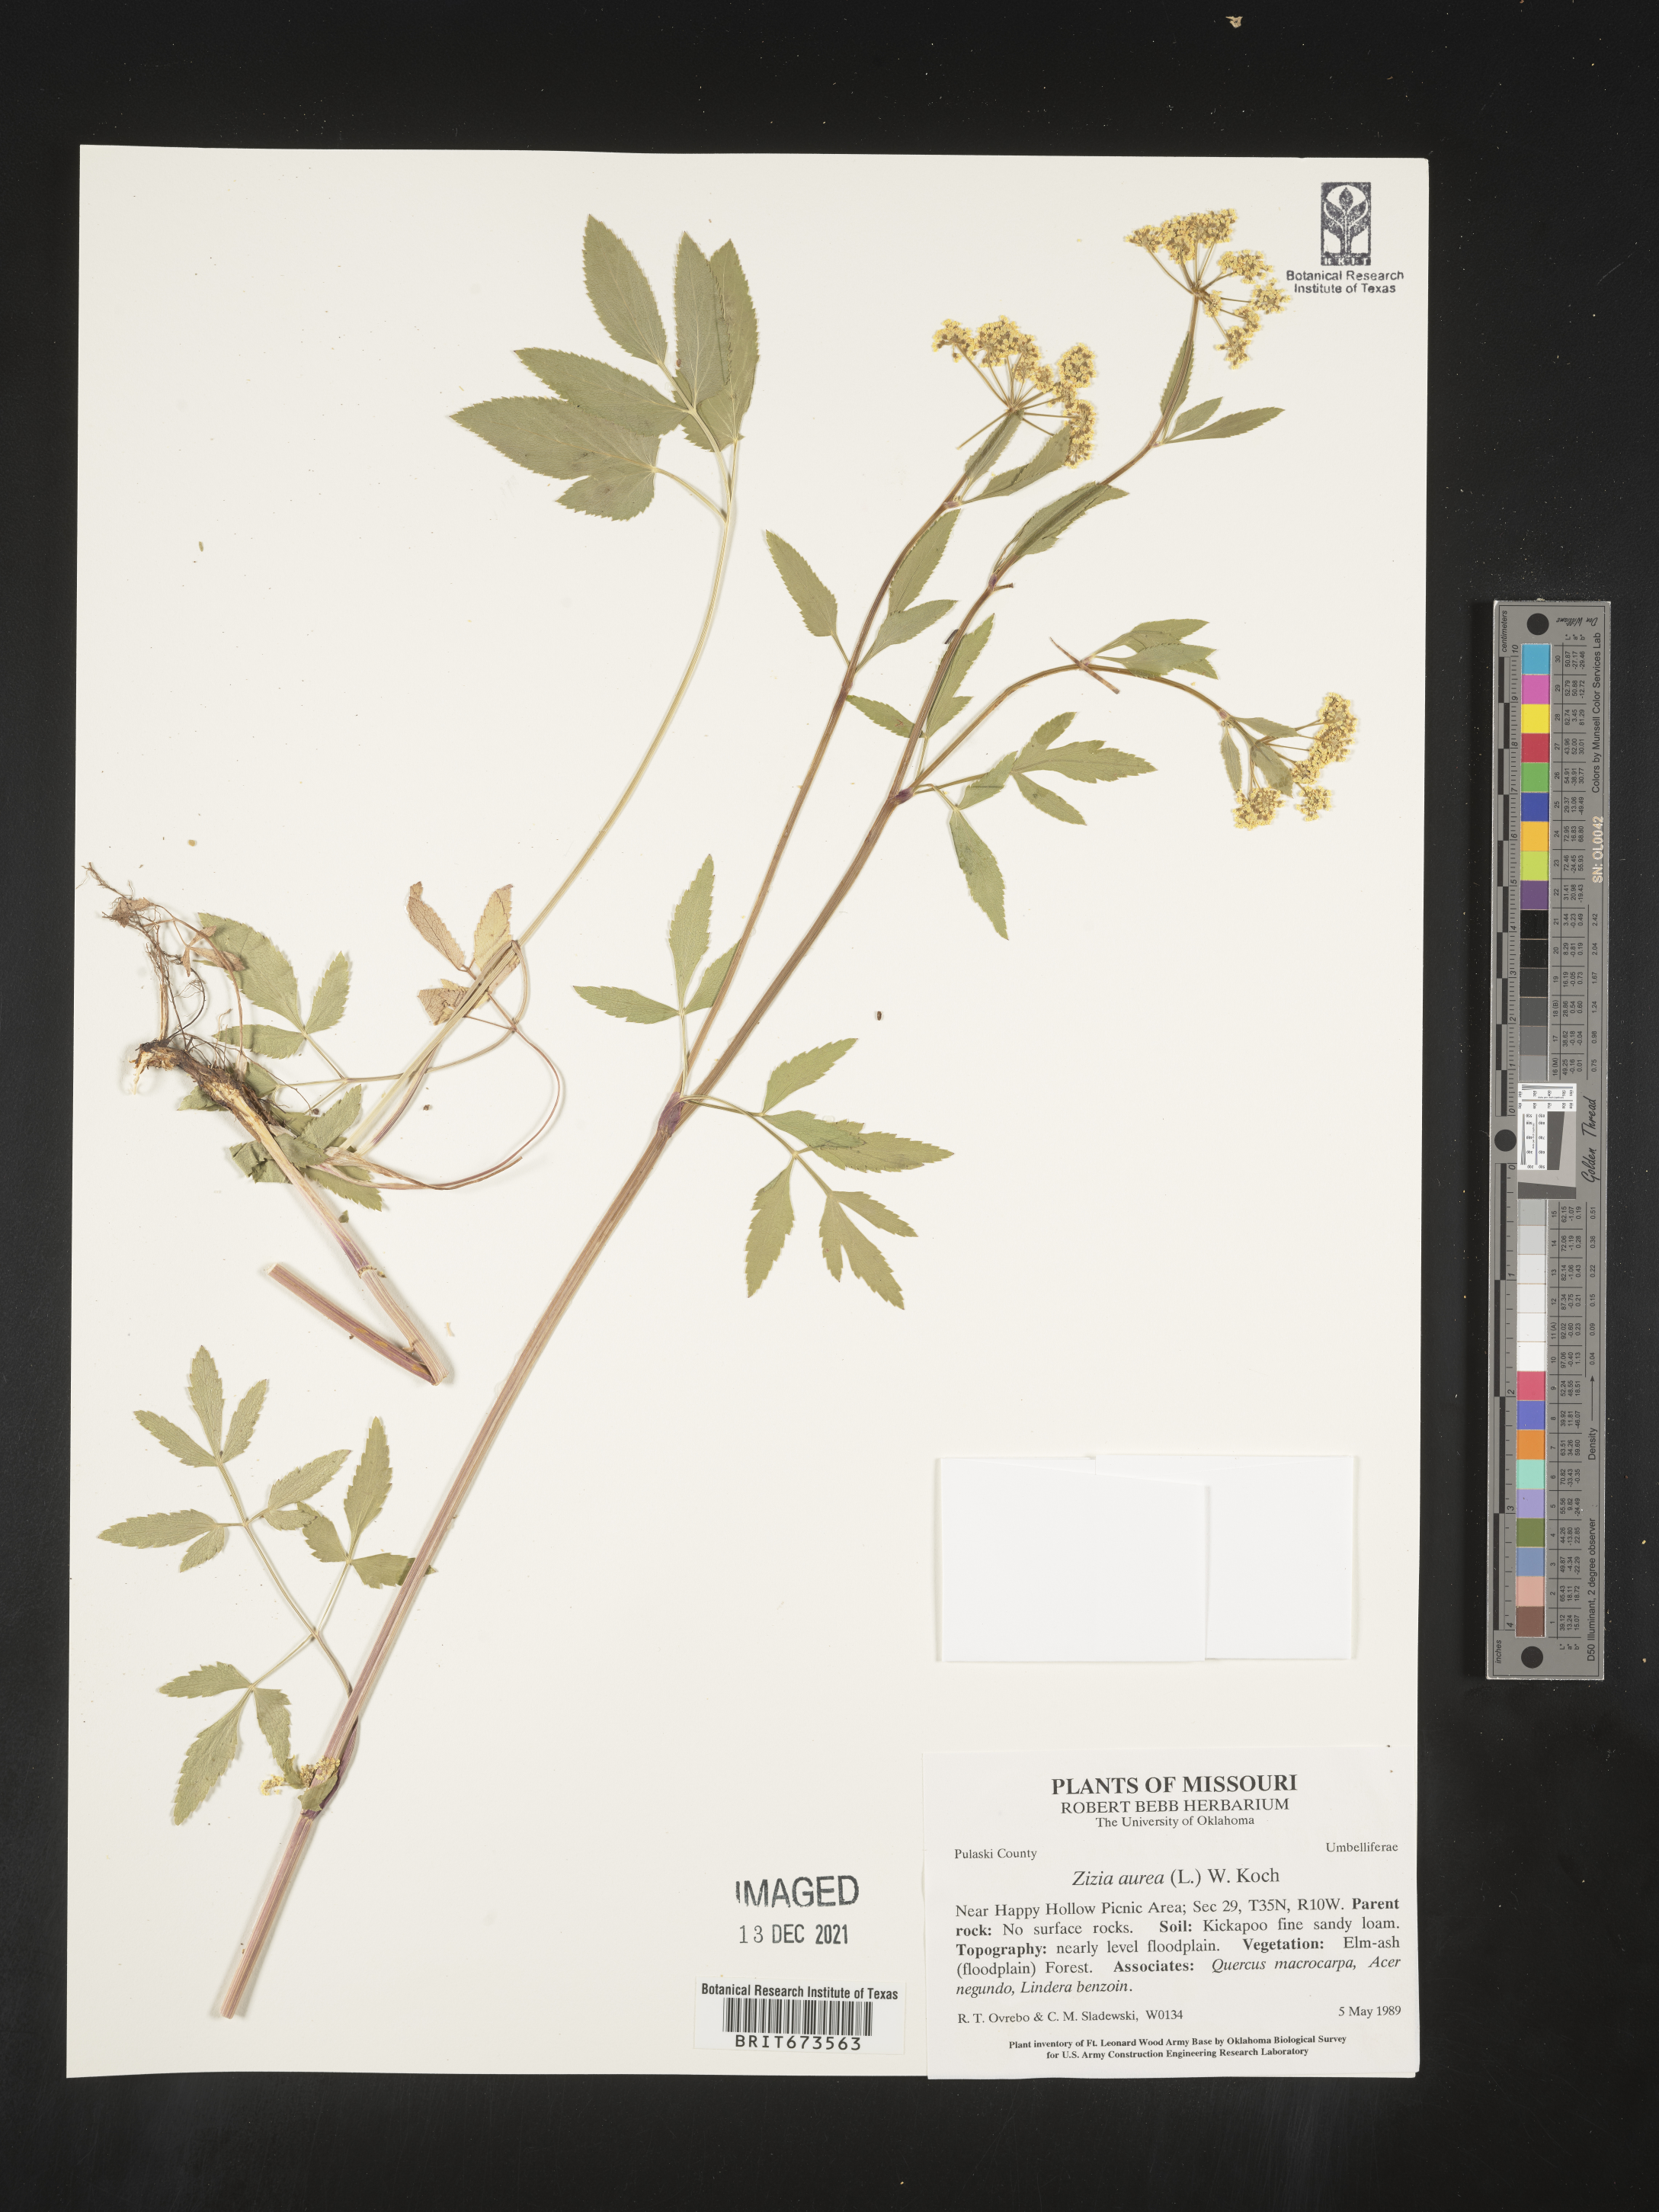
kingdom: Plantae
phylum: Tracheophyta
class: Magnoliopsida
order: Apiales
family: Apiaceae
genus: Zizia
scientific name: Zizia aurea
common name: Golden alexanders
